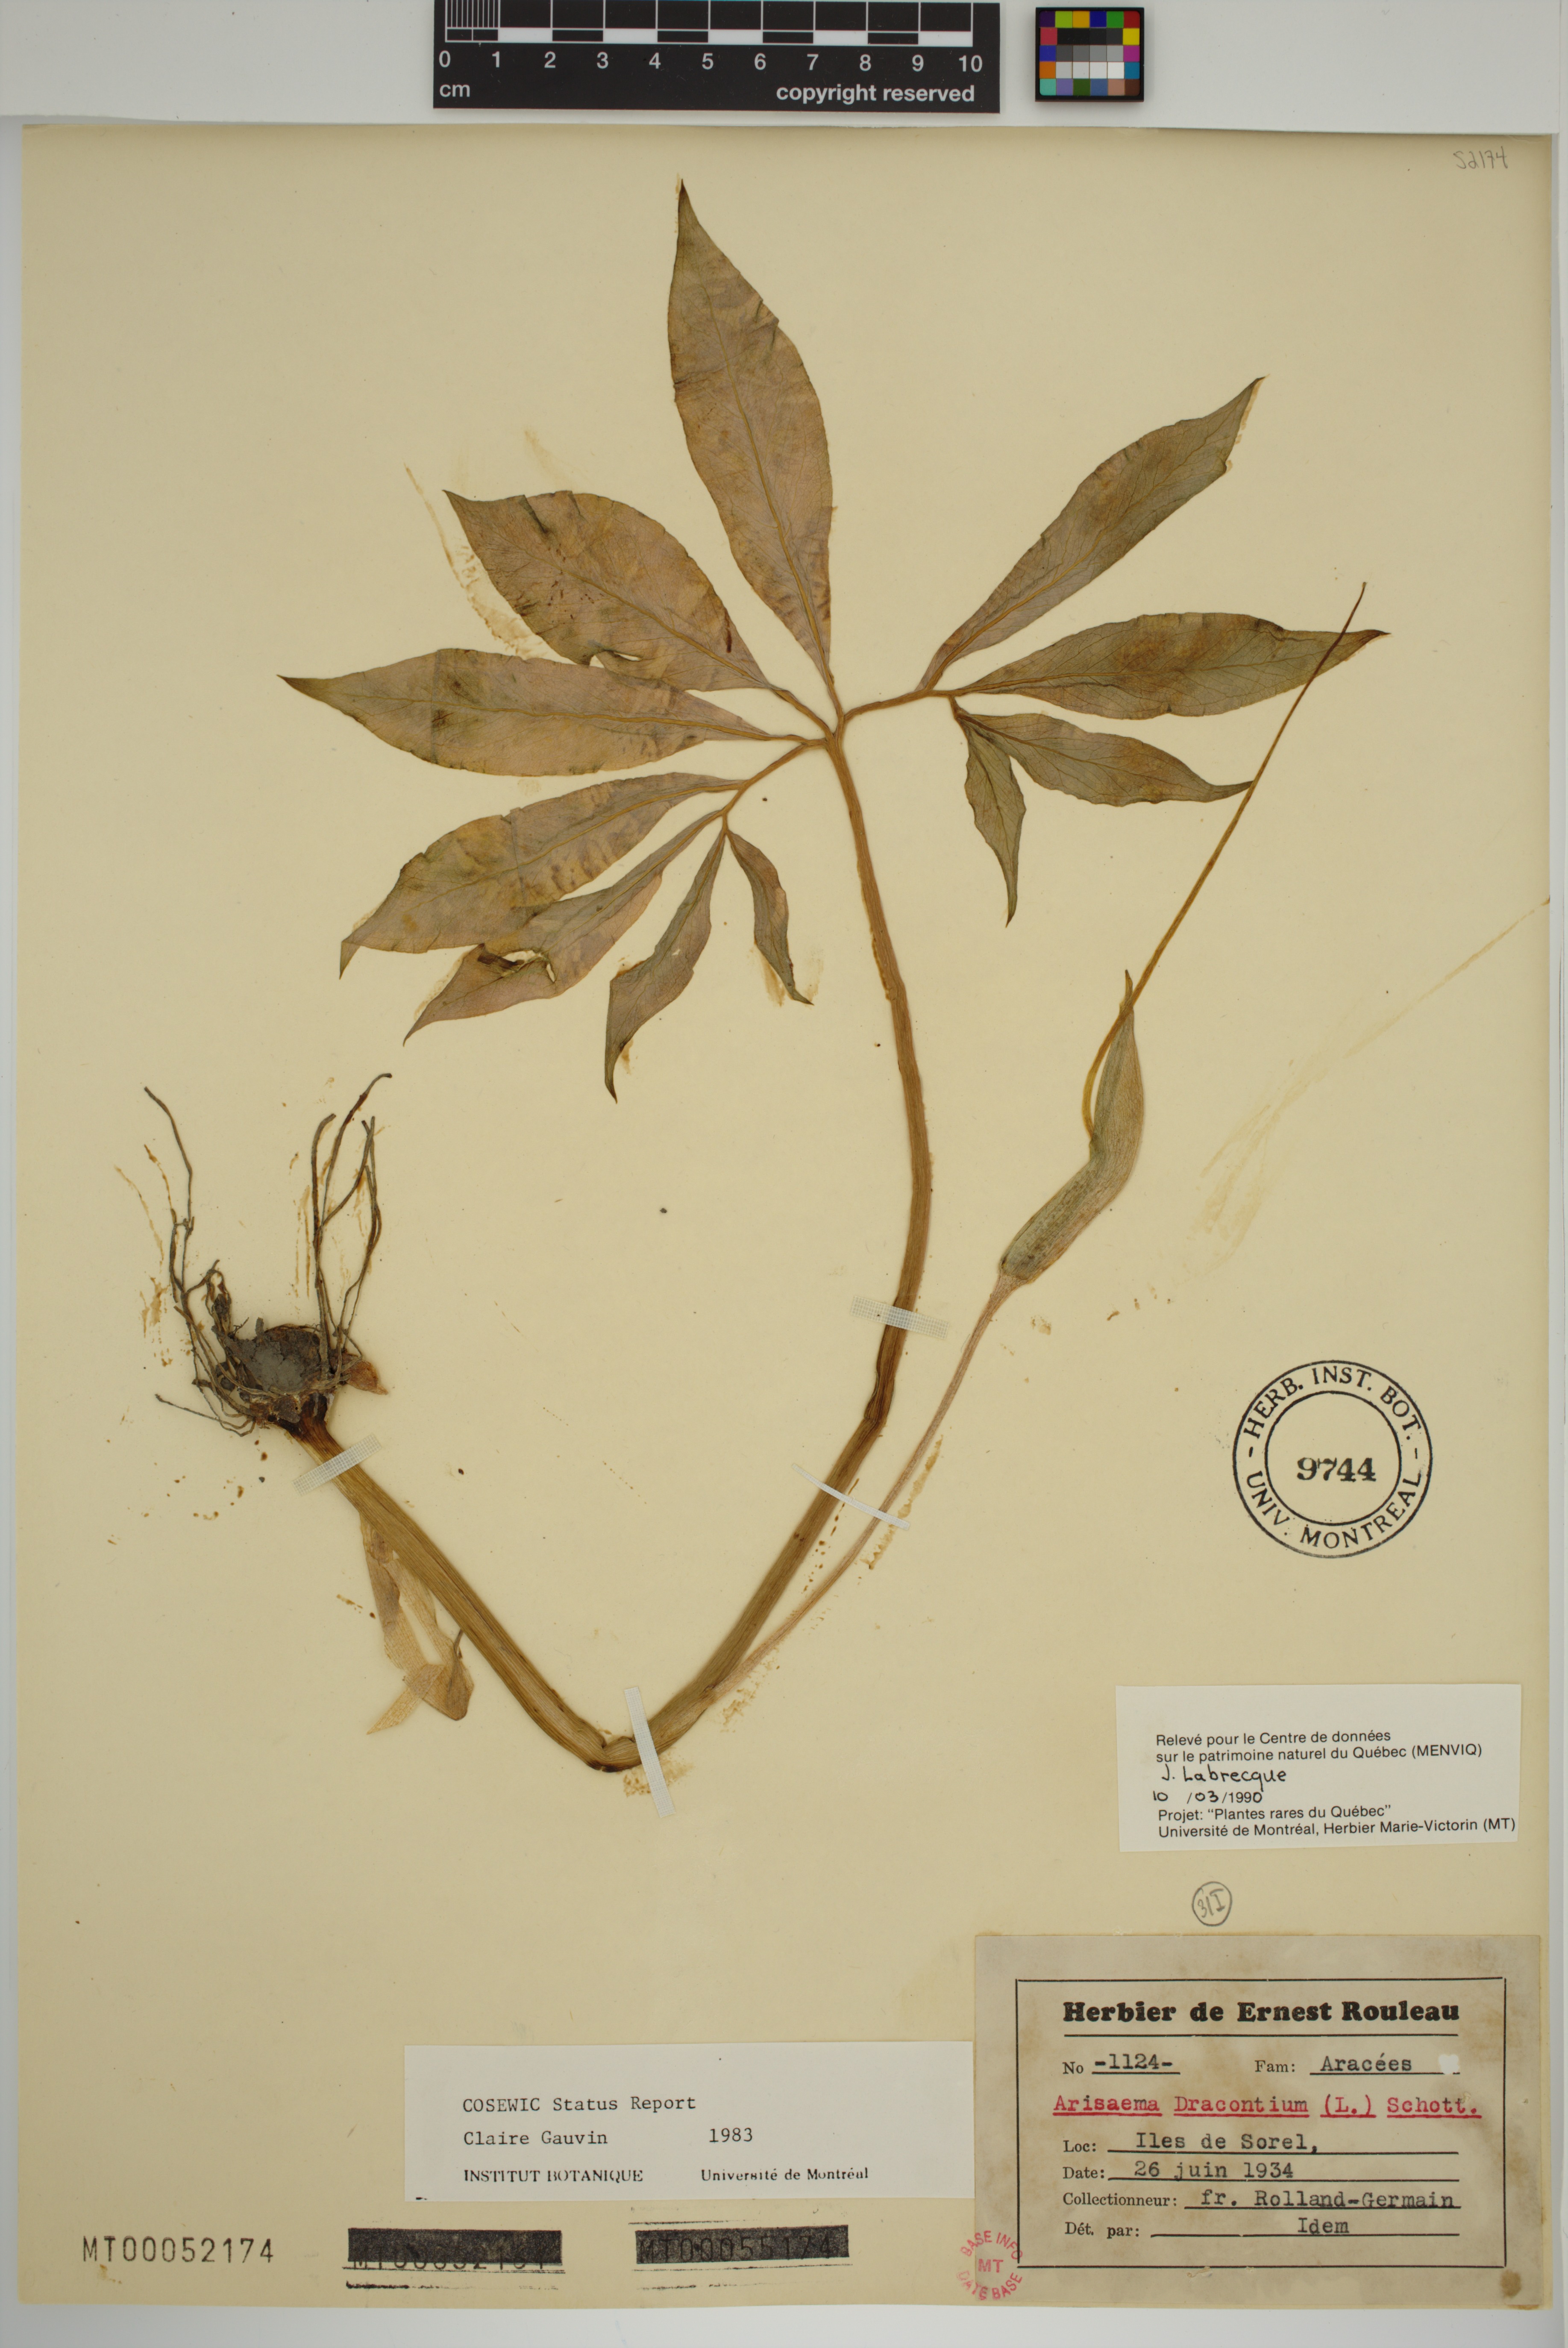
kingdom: Plantae
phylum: Tracheophyta
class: Liliopsida
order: Alismatales
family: Araceae
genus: Arisaema
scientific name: Arisaema dracontium
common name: Dragon-arum
